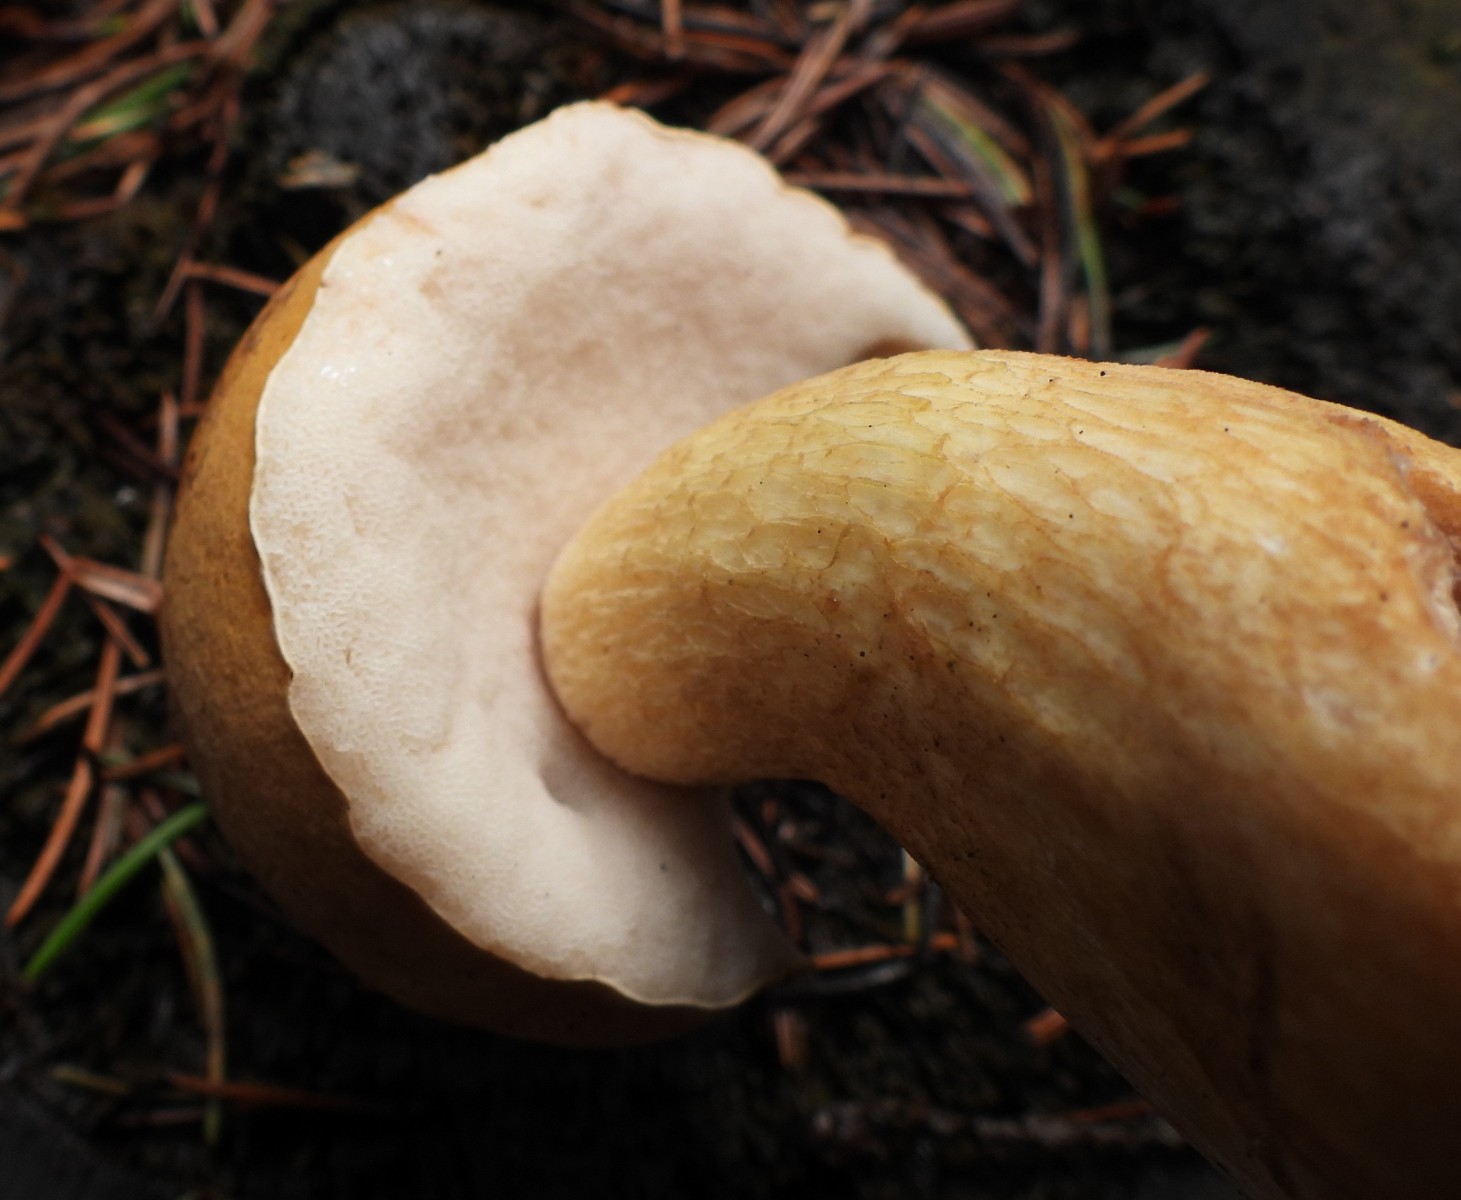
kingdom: Fungi
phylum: Basidiomycota
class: Agaricomycetes
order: Boletales
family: Boletaceae
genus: Tylopilus
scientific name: Tylopilus felleus
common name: galderørhat
